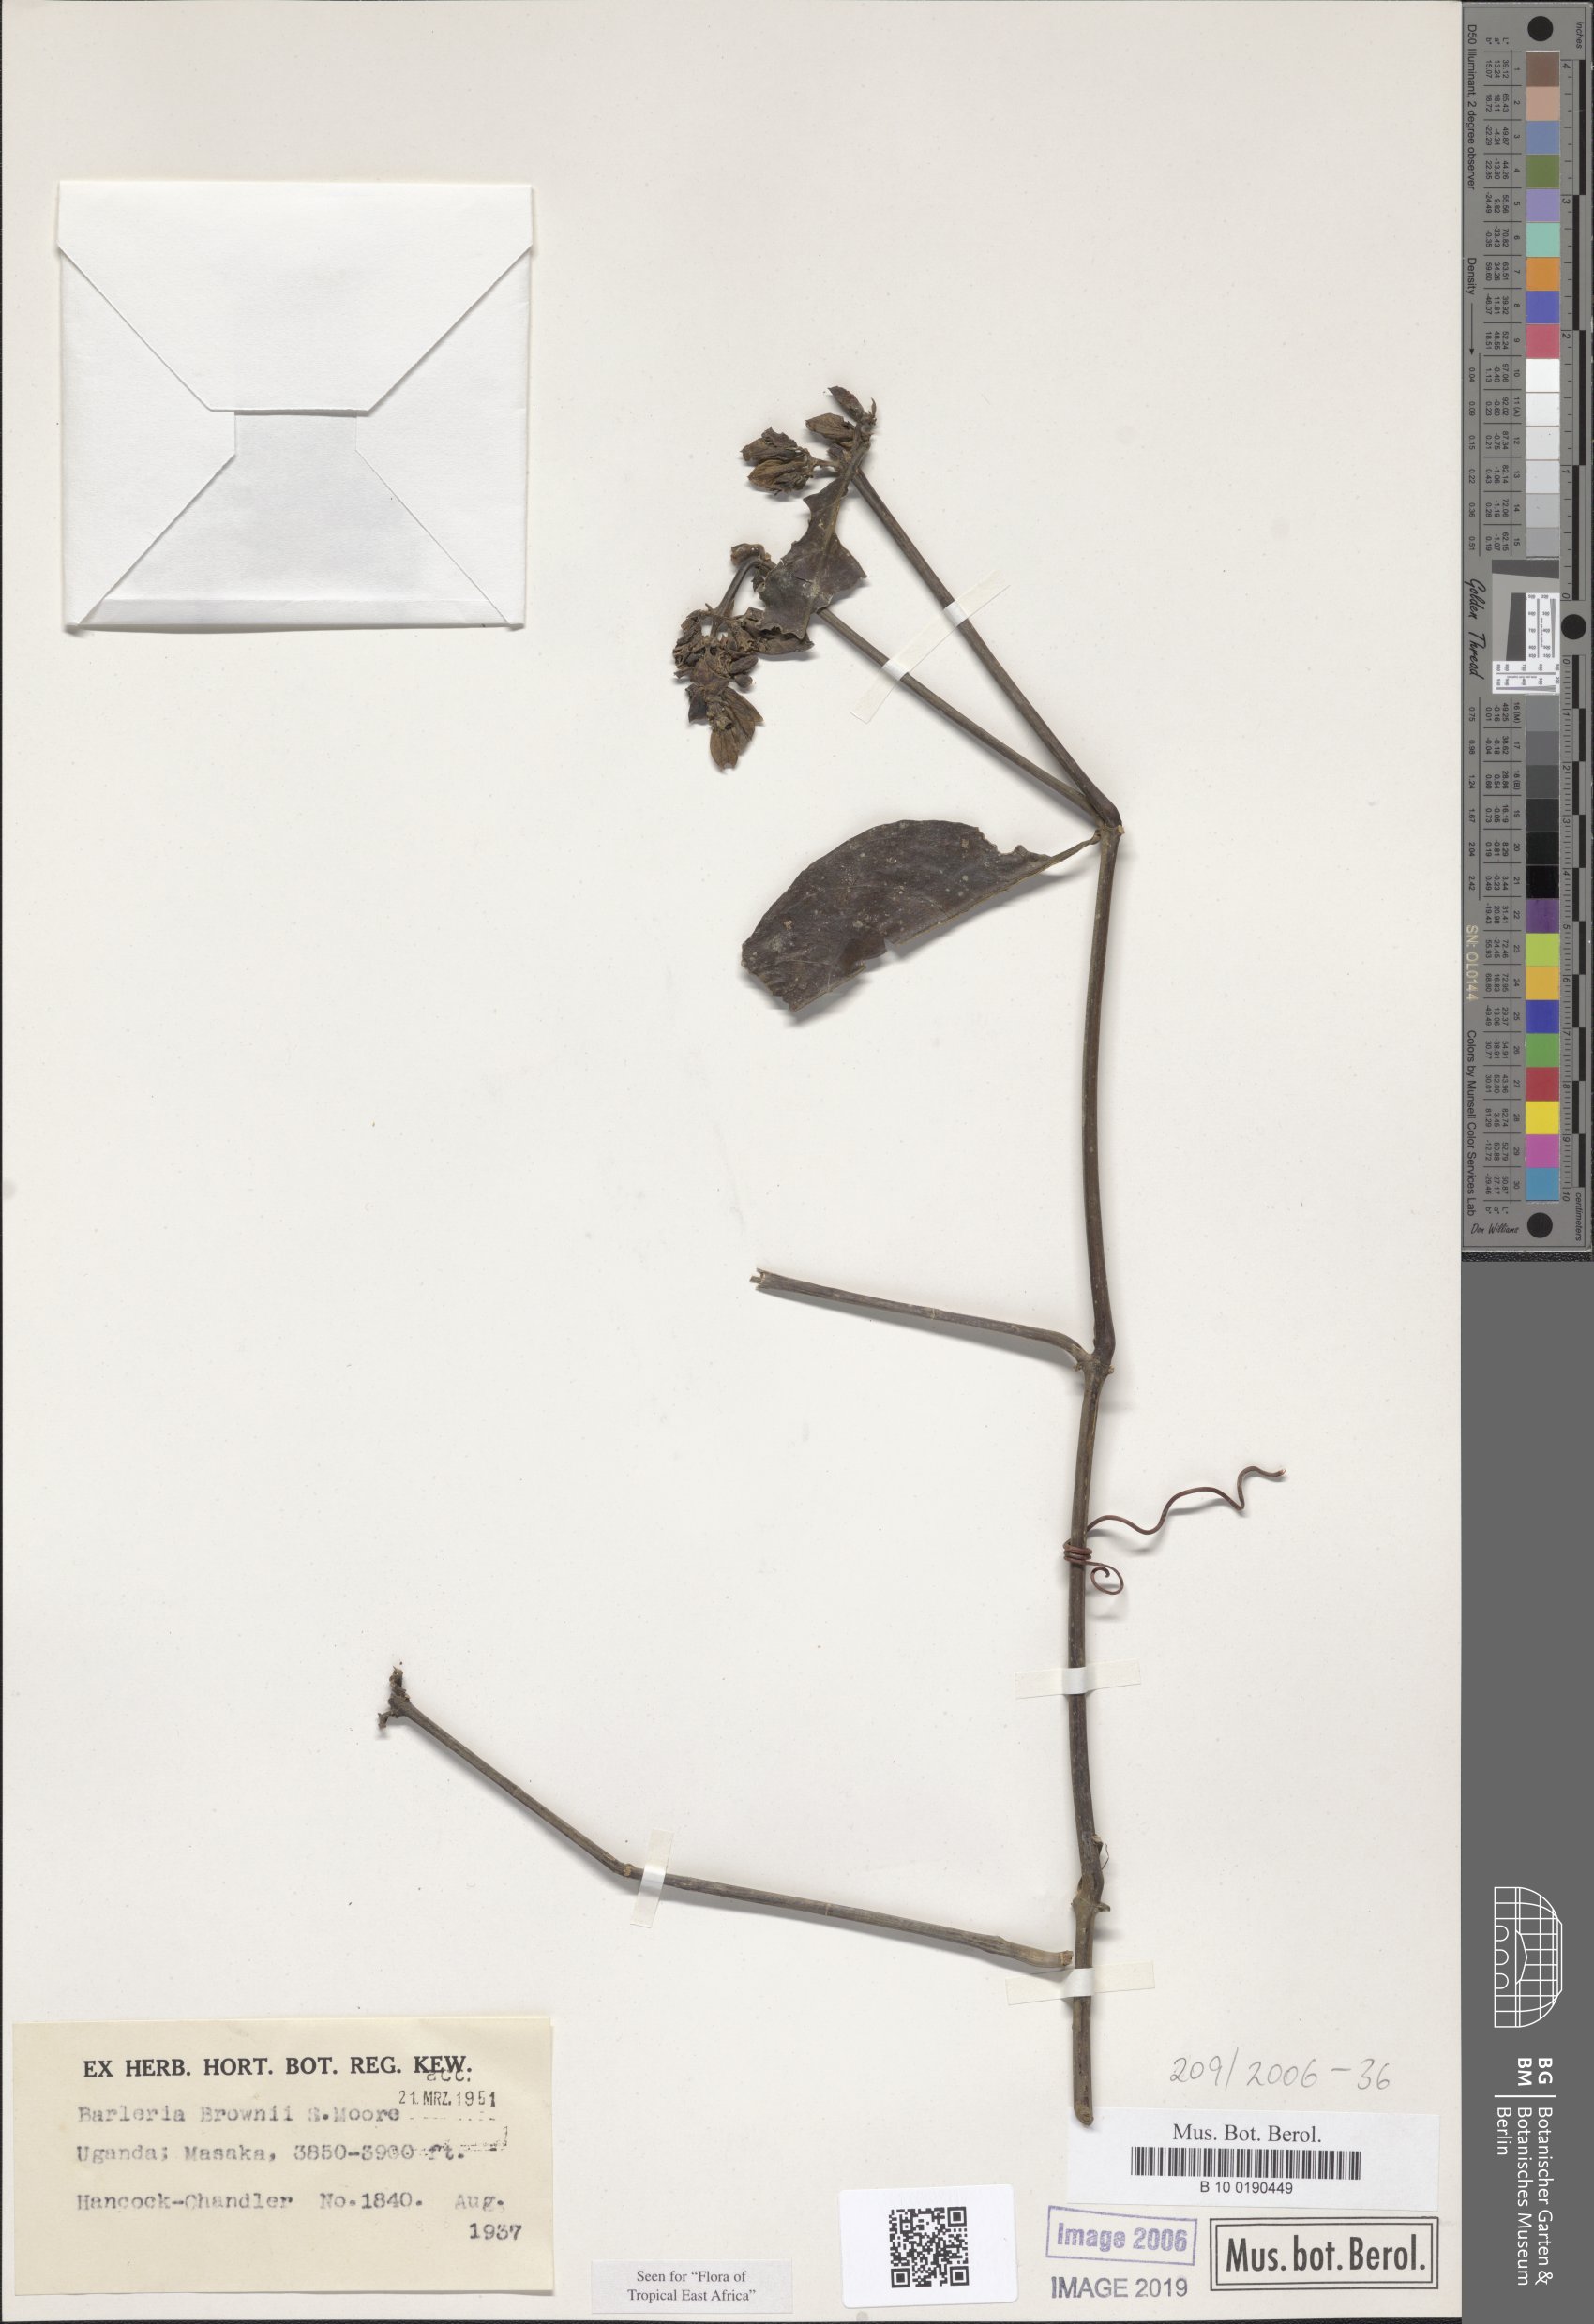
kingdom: Plantae
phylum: Tracheophyta
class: Magnoliopsida
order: Lamiales
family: Acanthaceae
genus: Barleria
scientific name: Barleria brownii
